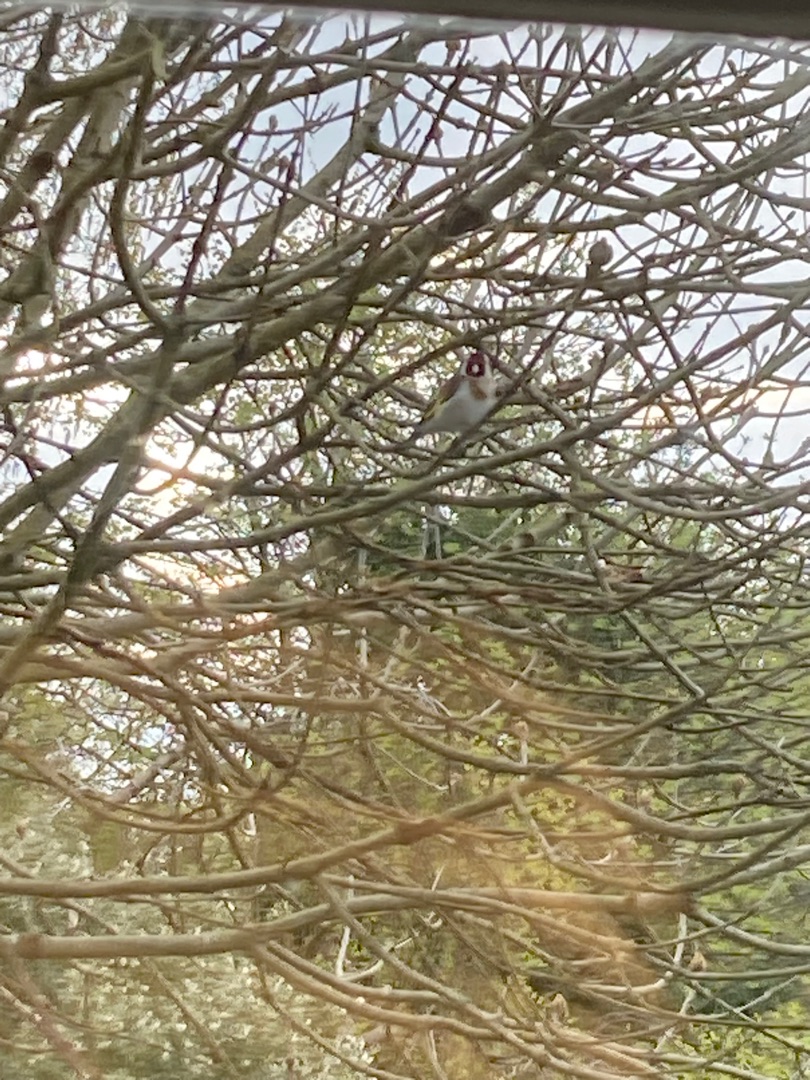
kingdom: Animalia
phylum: Chordata
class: Aves
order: Passeriformes
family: Fringillidae
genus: Carduelis
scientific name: Carduelis carduelis
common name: Stillits
